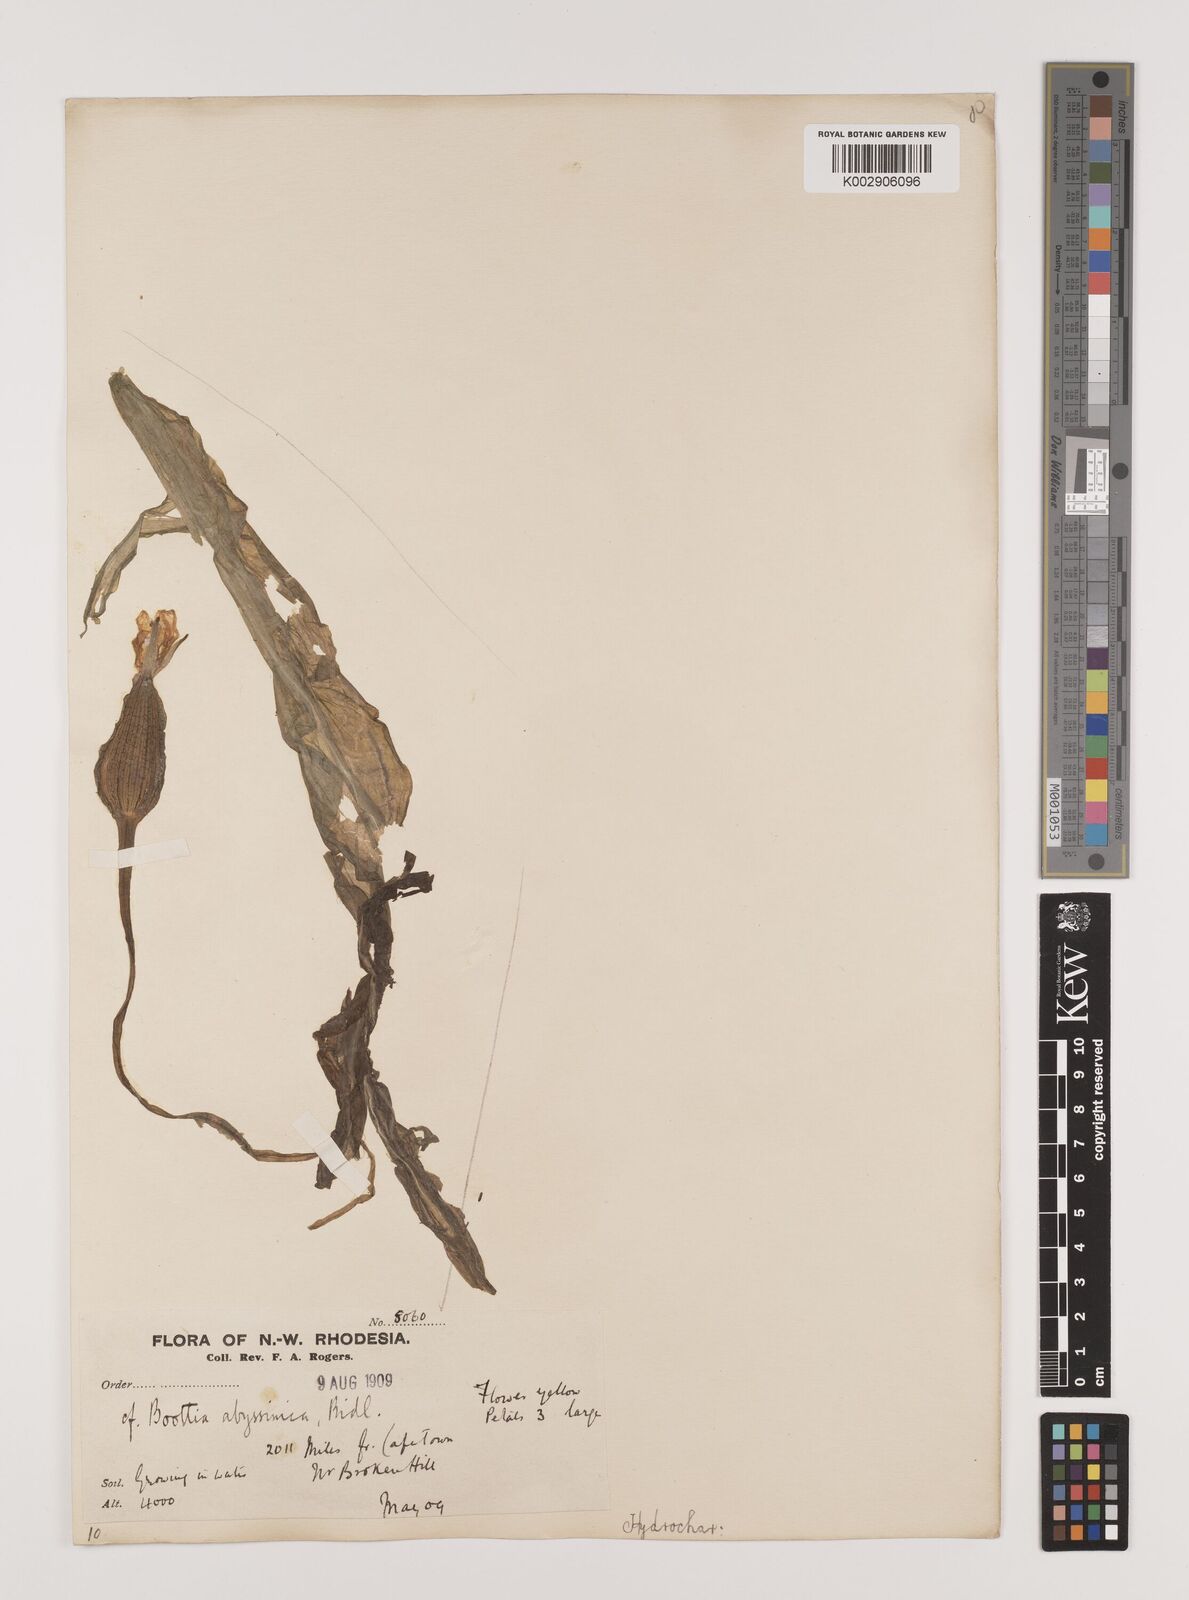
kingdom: Plantae
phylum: Tracheophyta
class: Liliopsida
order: Alismatales
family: Hydrocharitaceae
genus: Ottelia
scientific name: Ottelia ulvifolia
